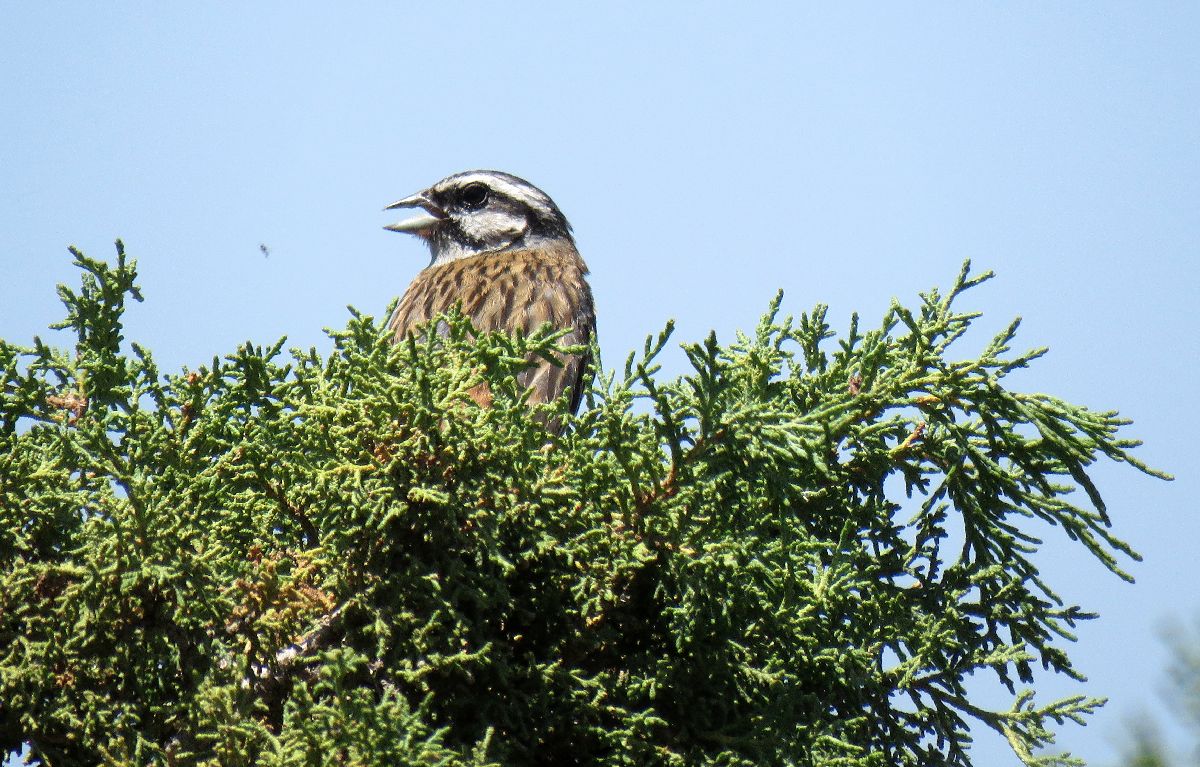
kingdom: Animalia
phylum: Chordata
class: Aves
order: Passeriformes
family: Emberizidae
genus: Emberiza
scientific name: Emberiza cia
